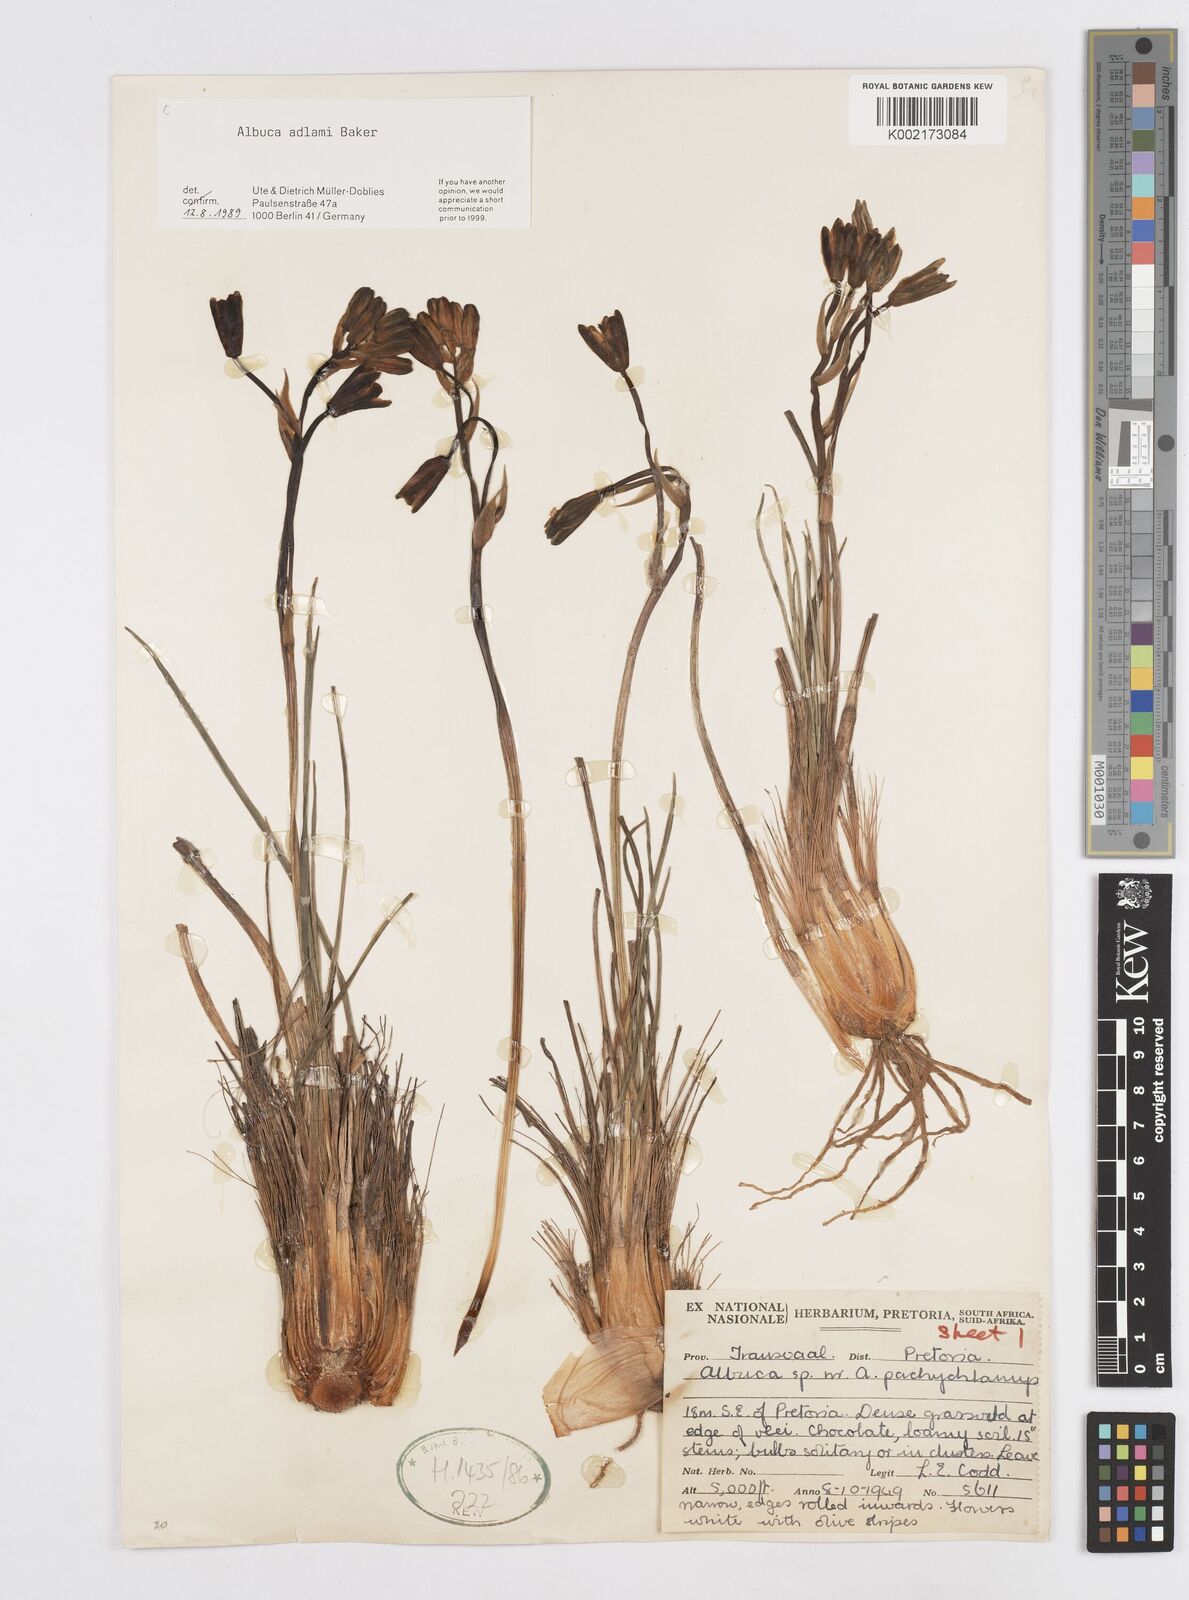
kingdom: Plantae
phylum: Tracheophyta
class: Liliopsida
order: Asparagales
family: Asparagaceae
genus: Albuca
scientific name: Albuca adlami
